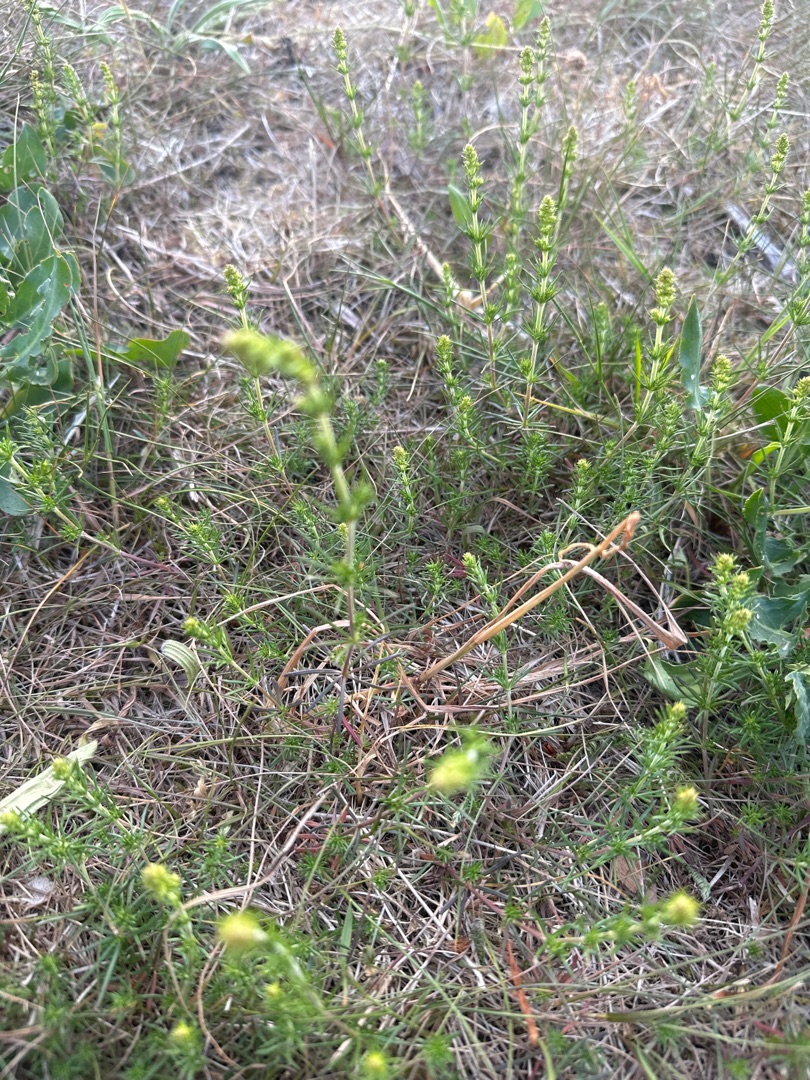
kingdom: Plantae
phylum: Tracheophyta
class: Magnoliopsida
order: Gentianales
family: Rubiaceae
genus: Galium
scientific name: Galium verum
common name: Gul snerre
